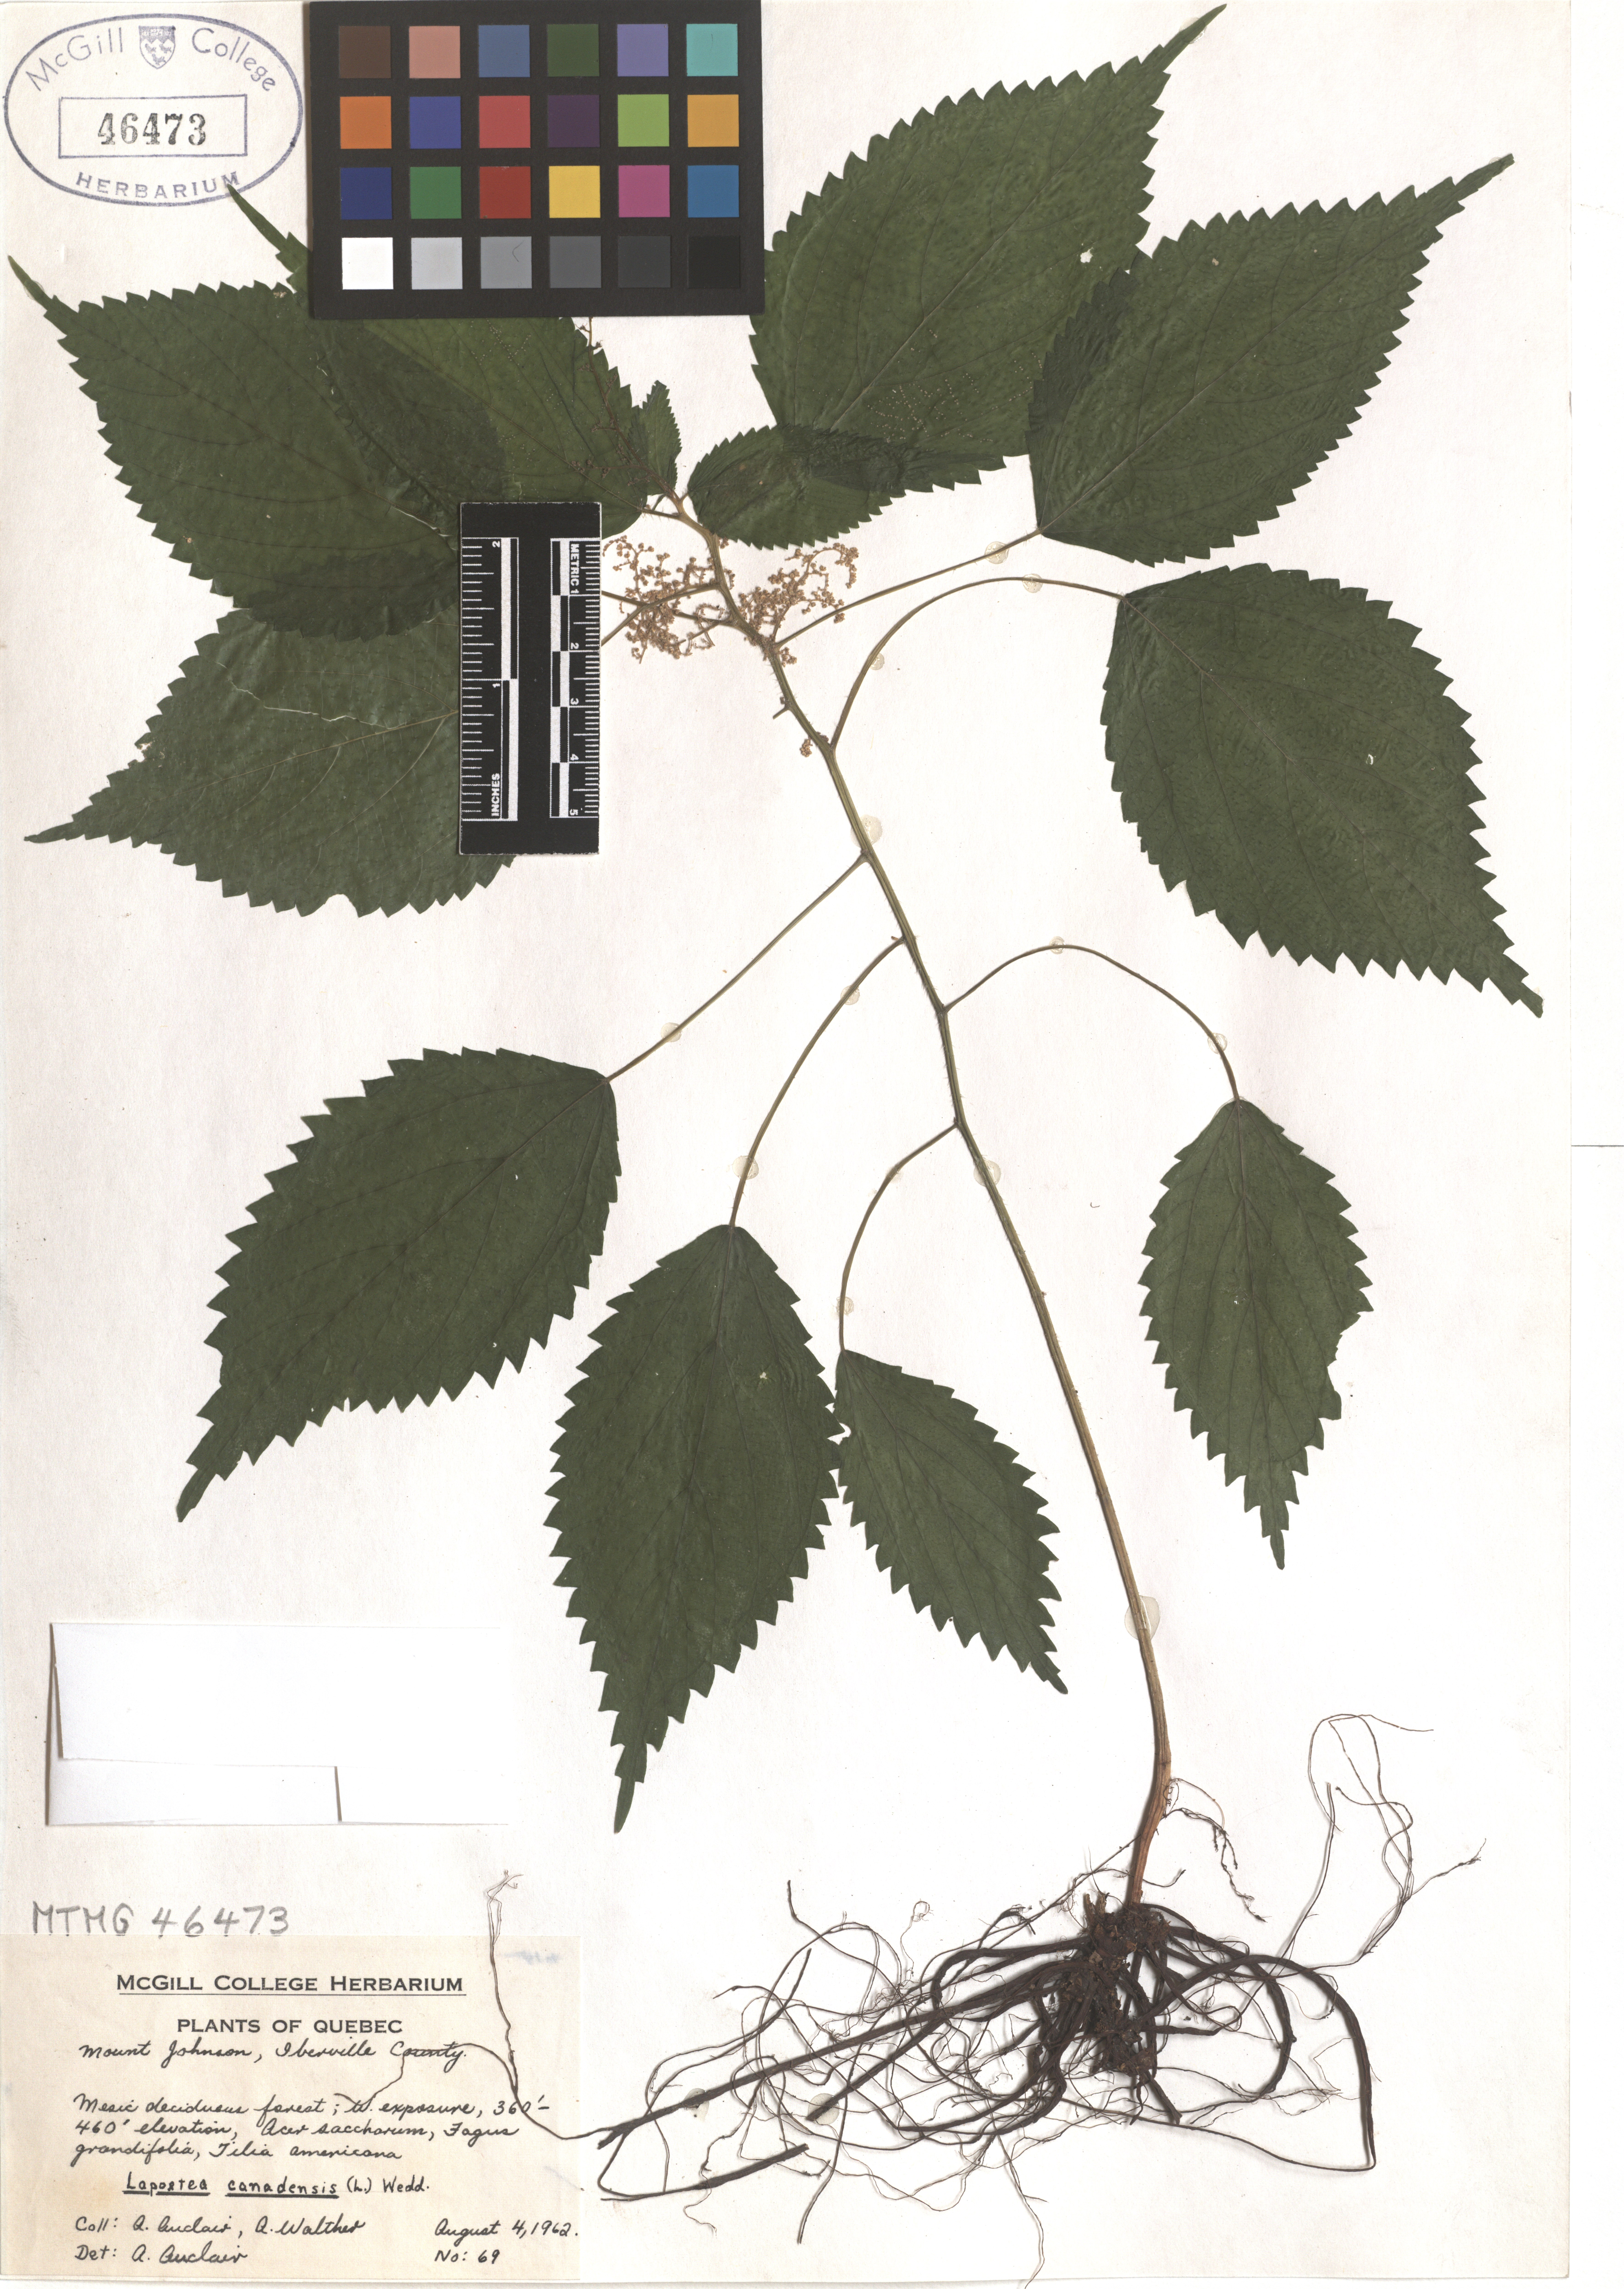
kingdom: Plantae
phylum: Tracheophyta
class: Magnoliopsida
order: Rosales
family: Urticaceae
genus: Laportea
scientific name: Laportea canadensis
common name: Canada nettle
